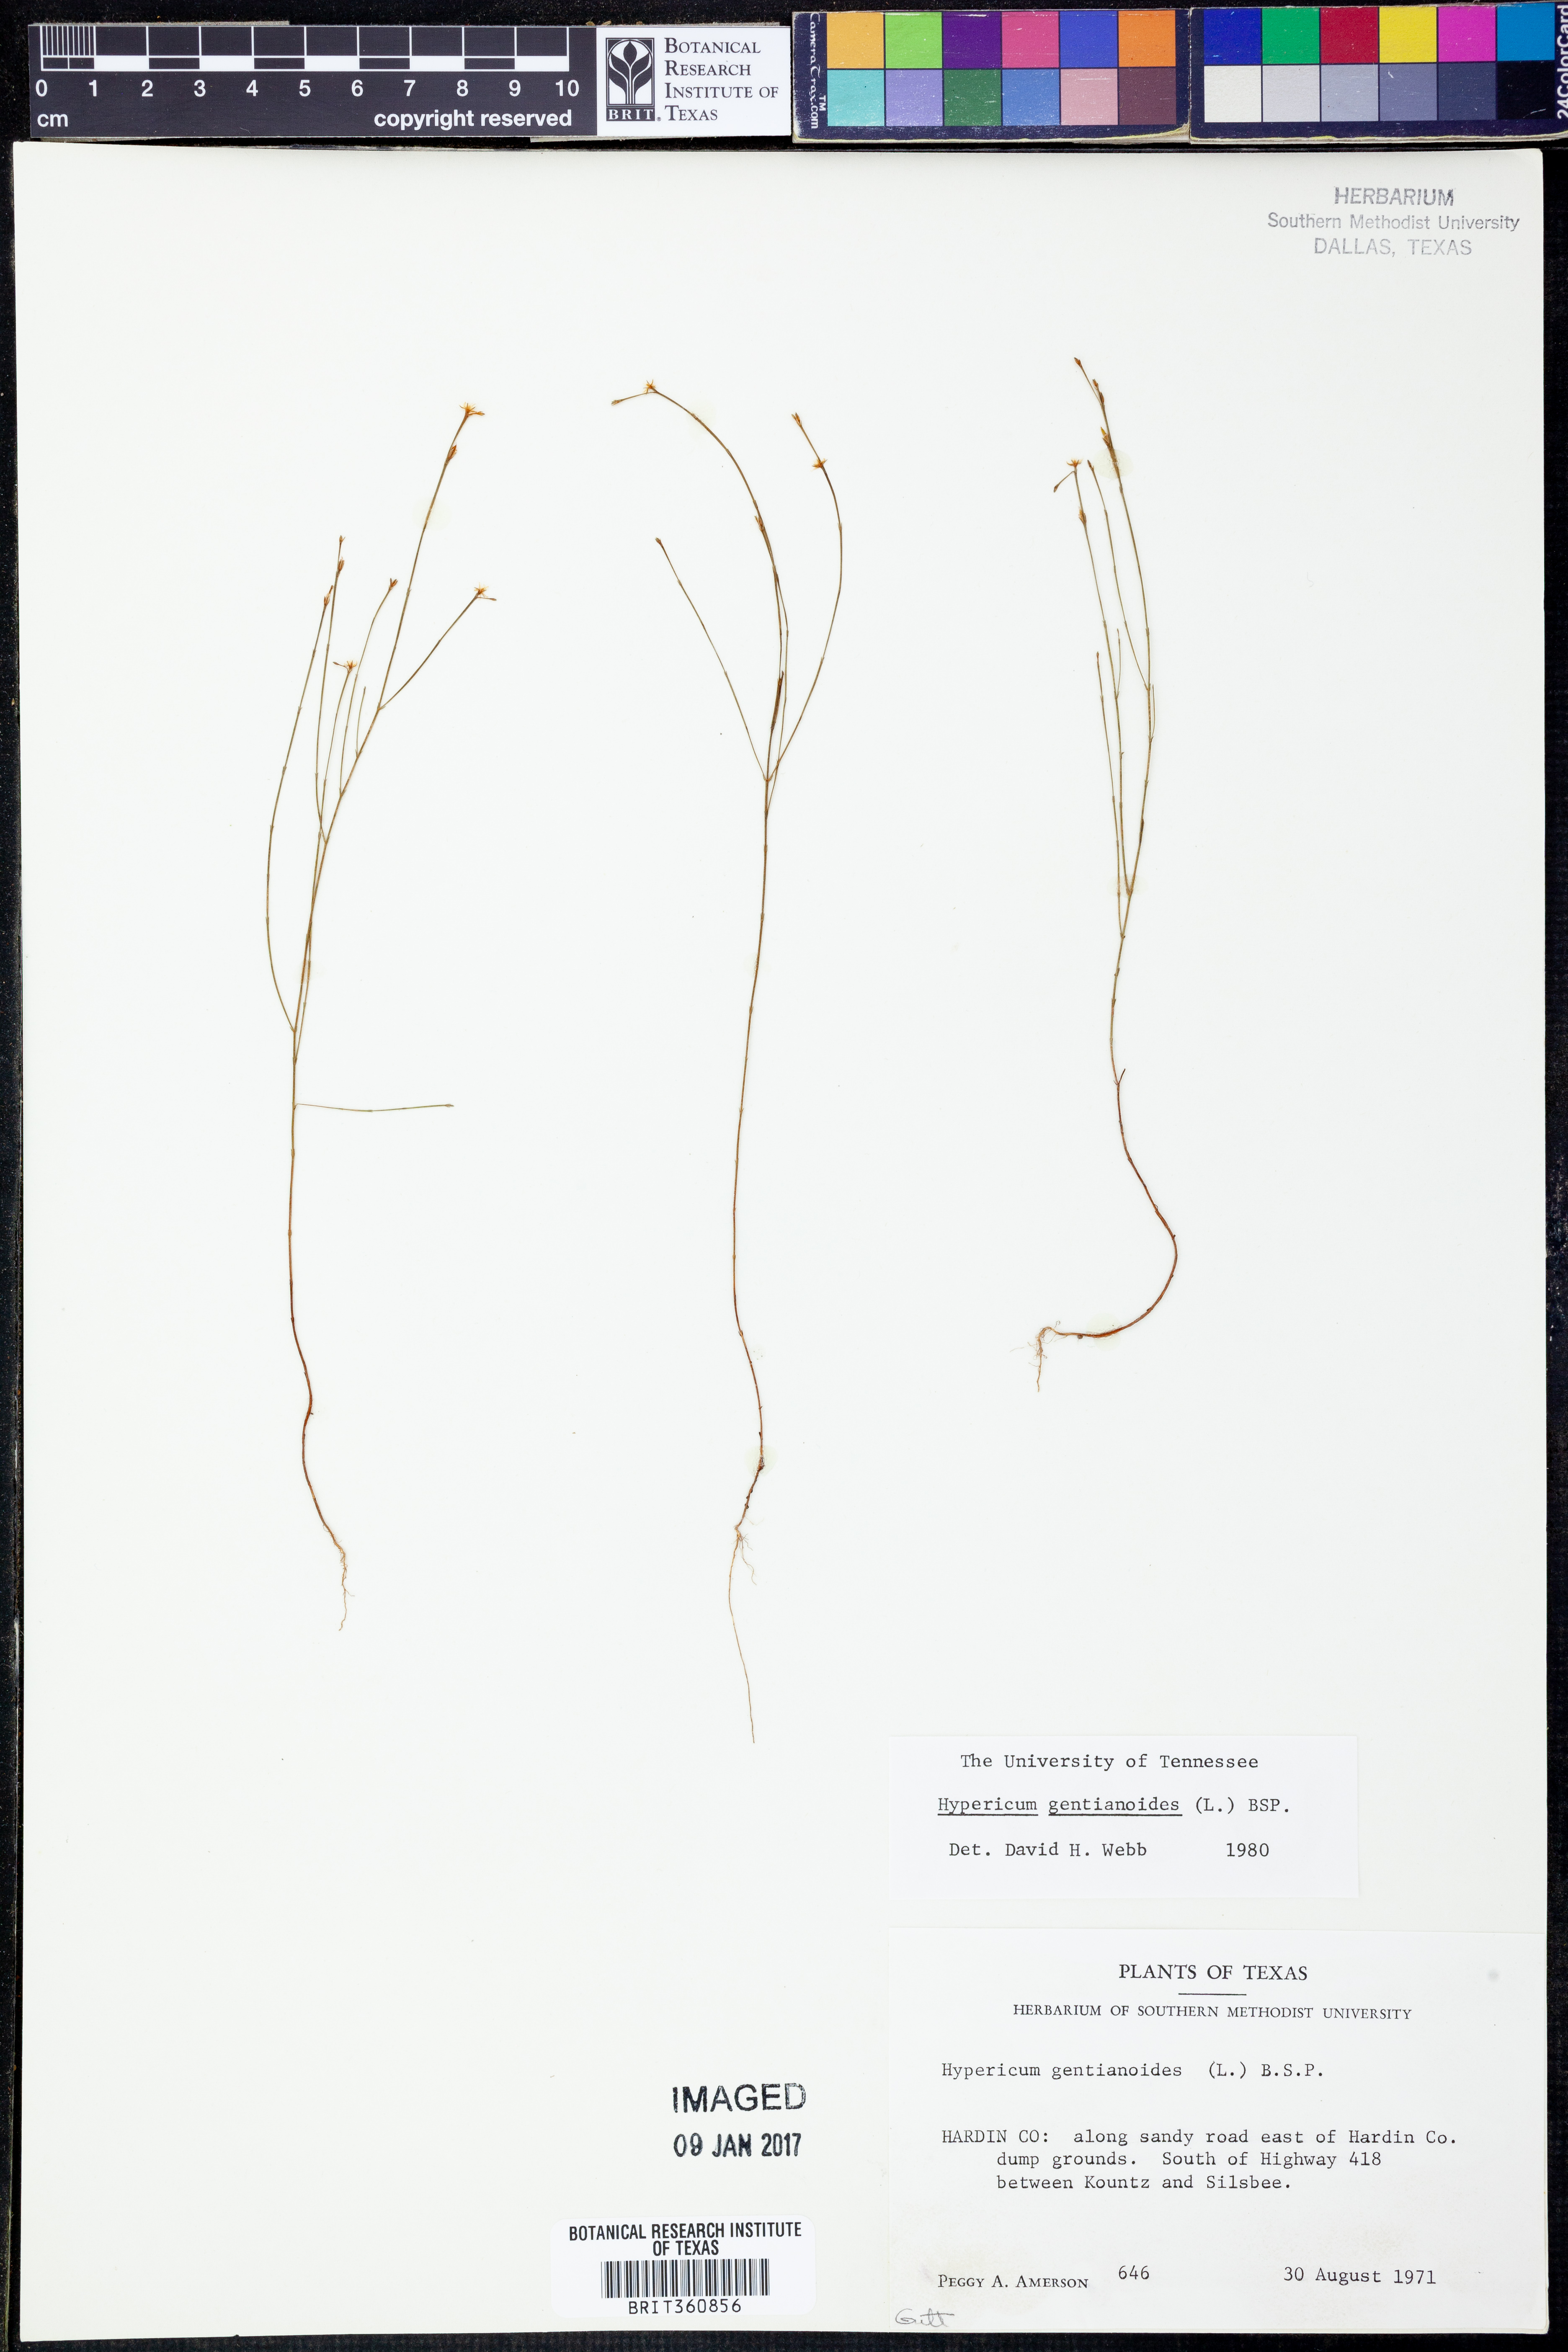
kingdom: Plantae
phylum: Tracheophyta
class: Magnoliopsida
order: Malpighiales
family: Hypericaceae
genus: Hypericum
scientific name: Hypericum gentianoides
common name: Gentian-leaved st. john's-wort
